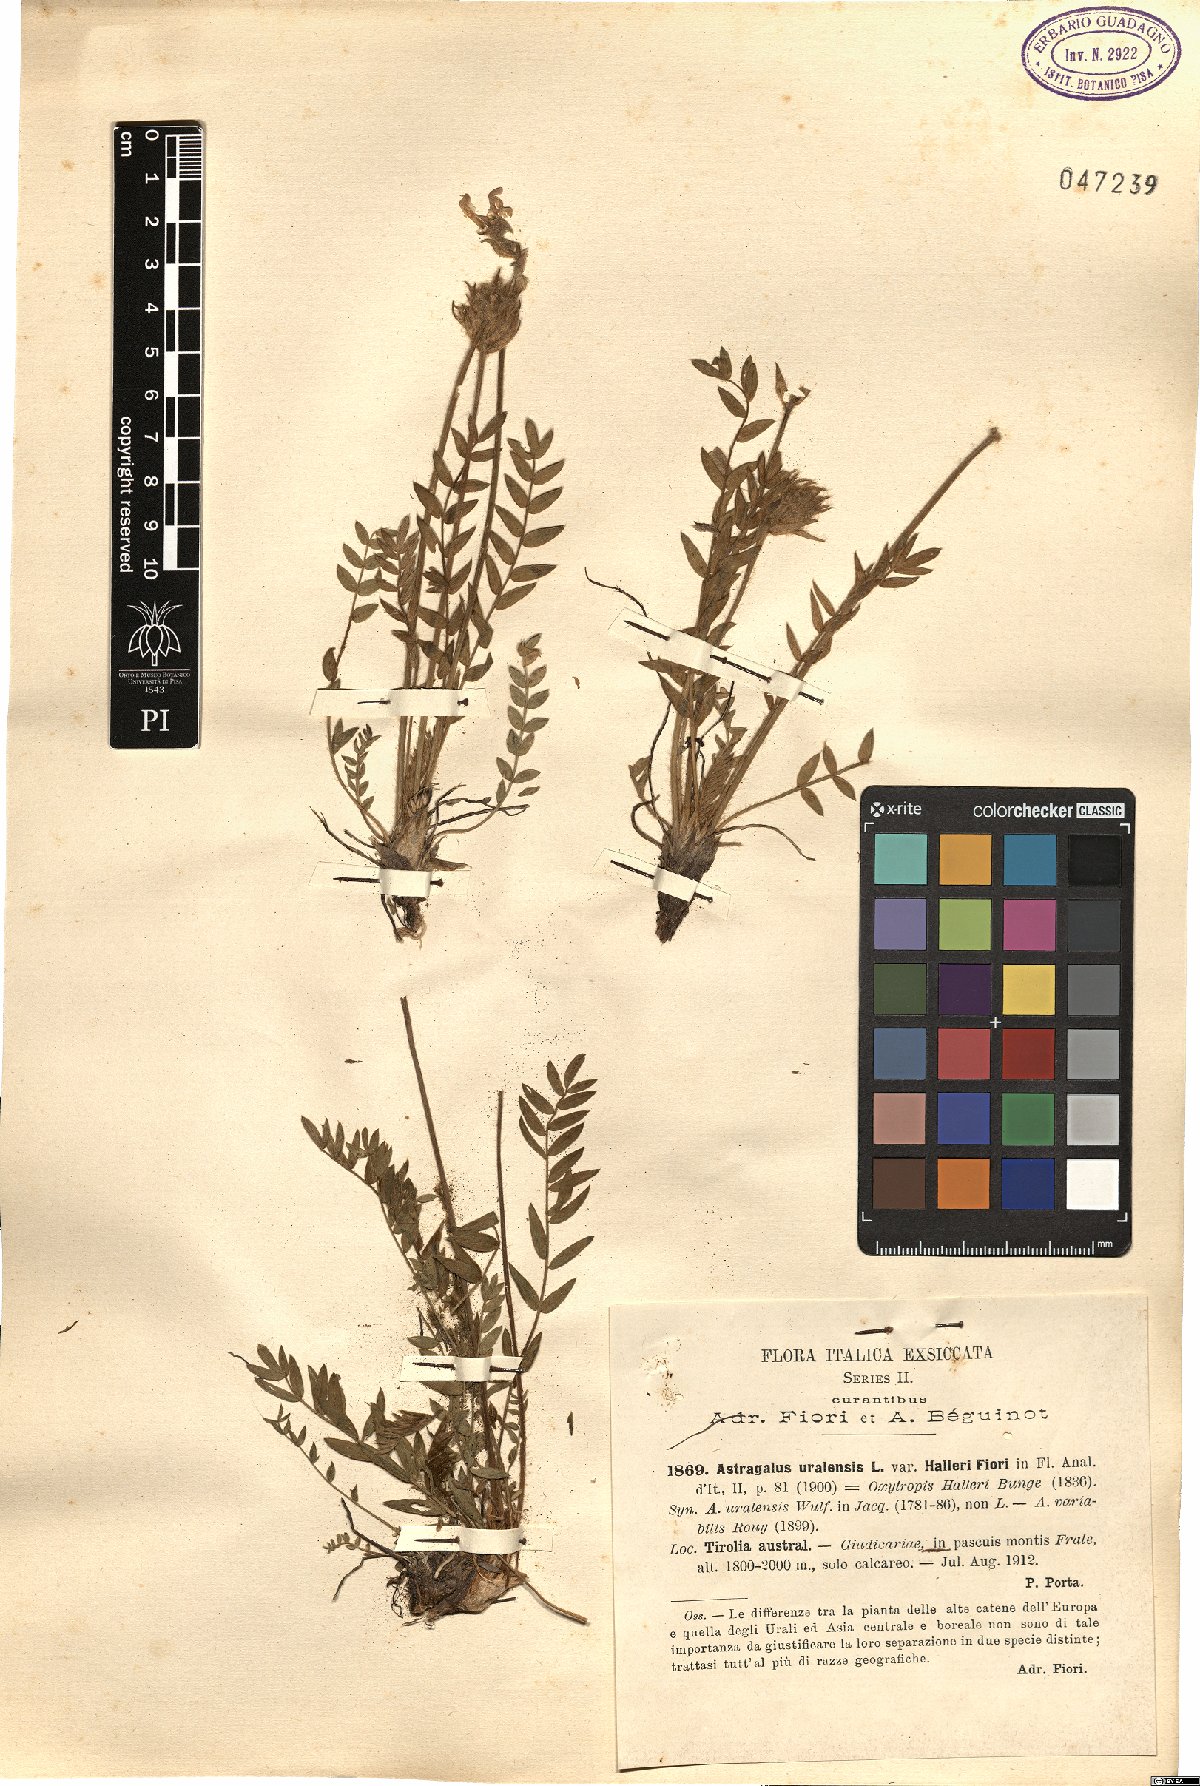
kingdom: Plantae
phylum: Tracheophyta
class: Magnoliopsida
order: Fabales
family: Fabaceae
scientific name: Fabaceae
